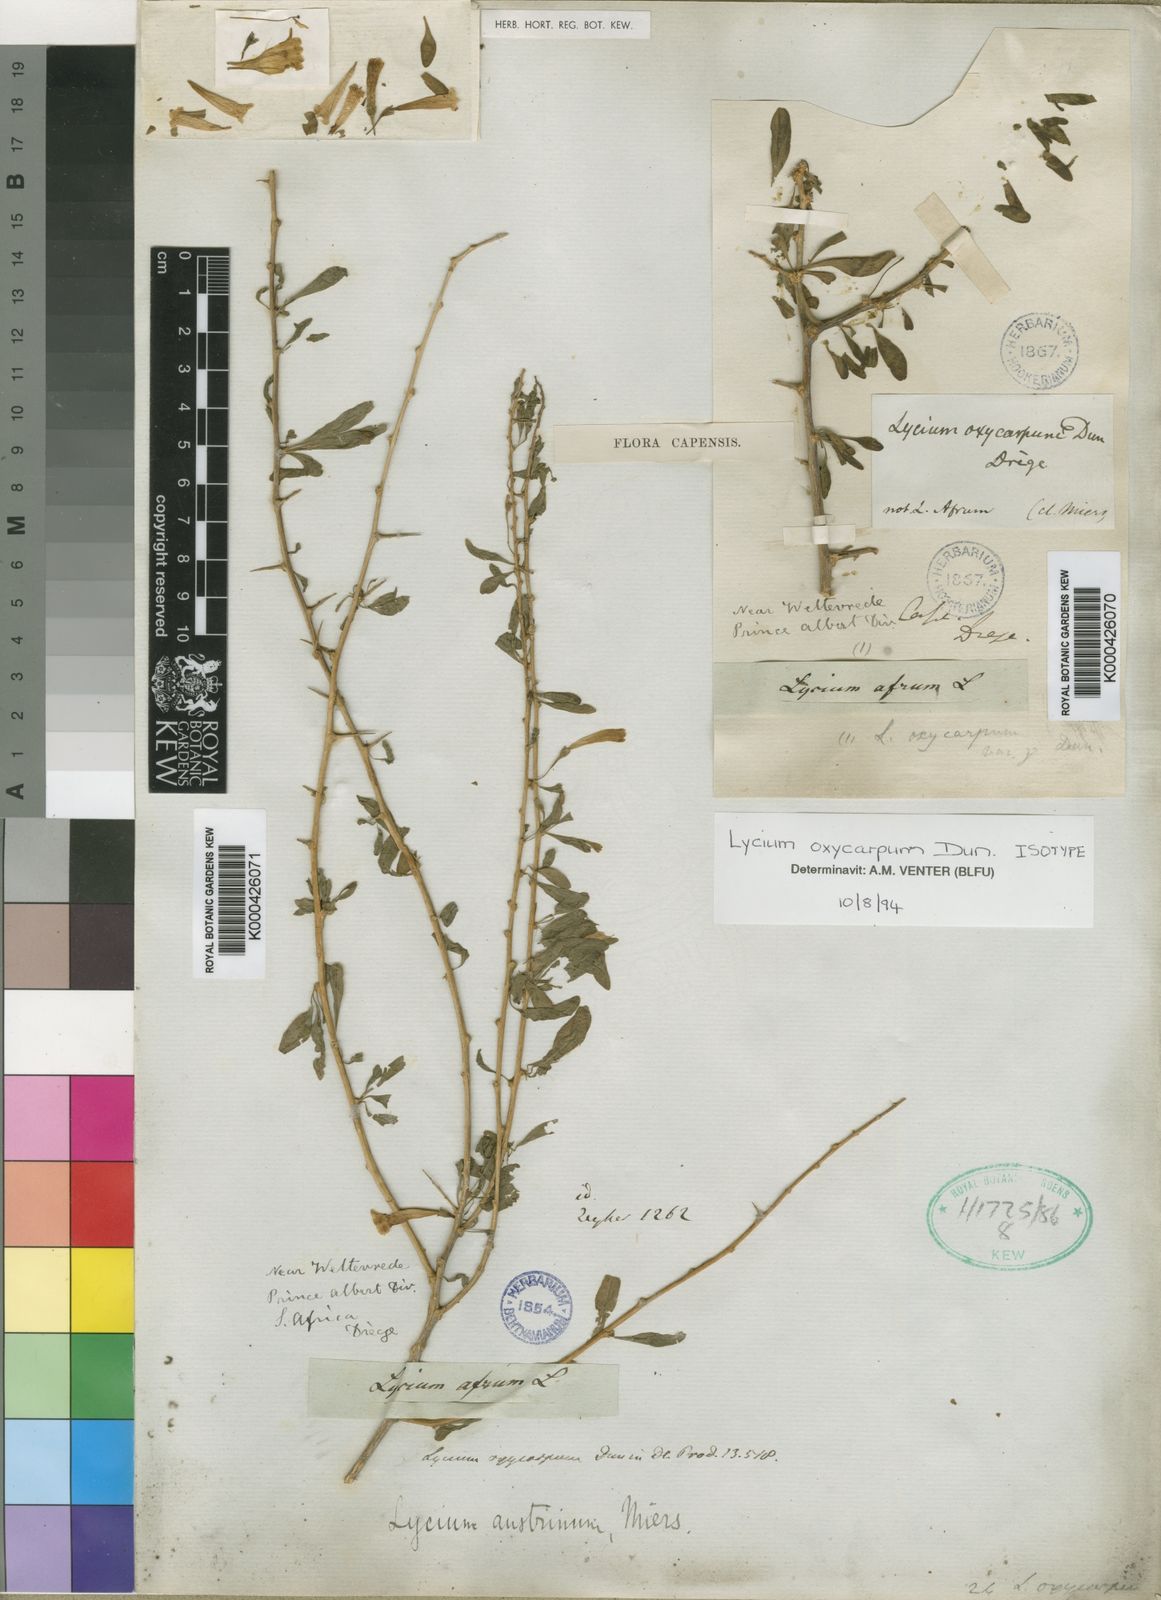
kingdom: Plantae
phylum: Tracheophyta
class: Magnoliopsida
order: Solanales
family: Solanaceae
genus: Lycium
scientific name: Lycium oxycarpum
